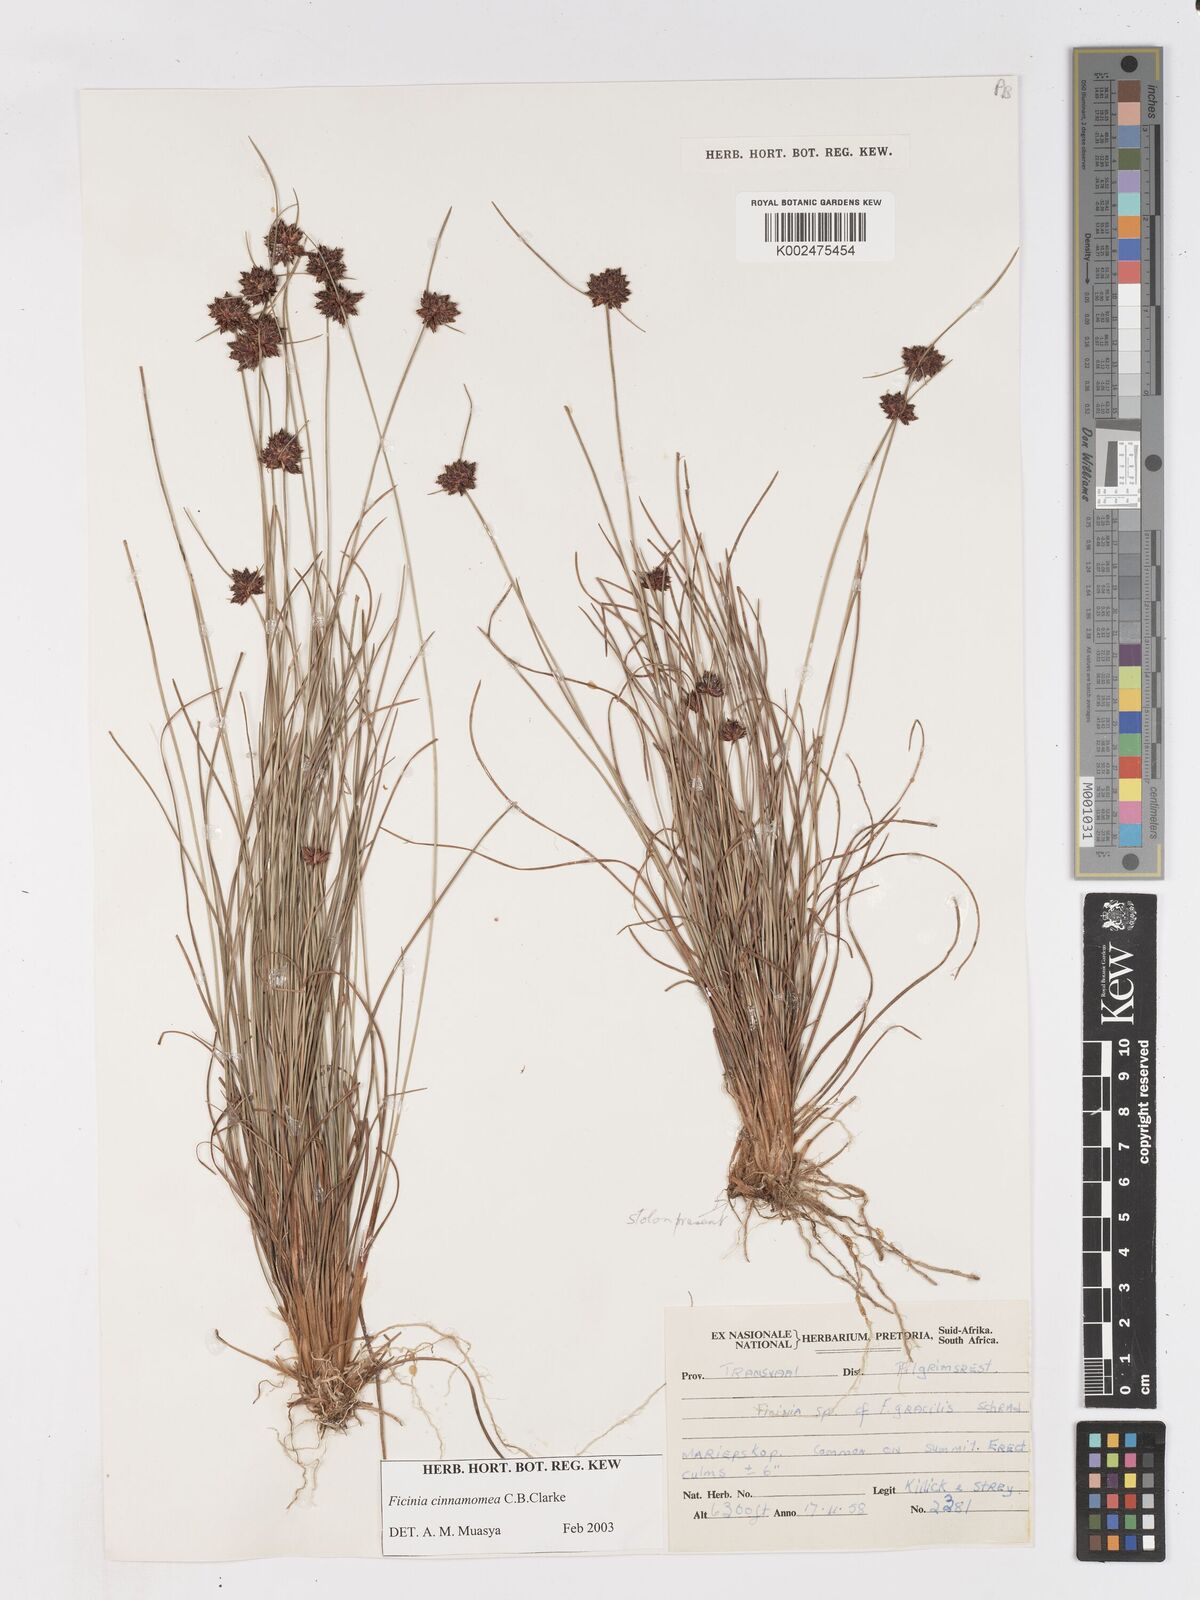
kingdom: Plantae
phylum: Tracheophyta
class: Liliopsida
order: Poales
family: Cyperaceae
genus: Ficinia
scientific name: Ficinia gracilis
